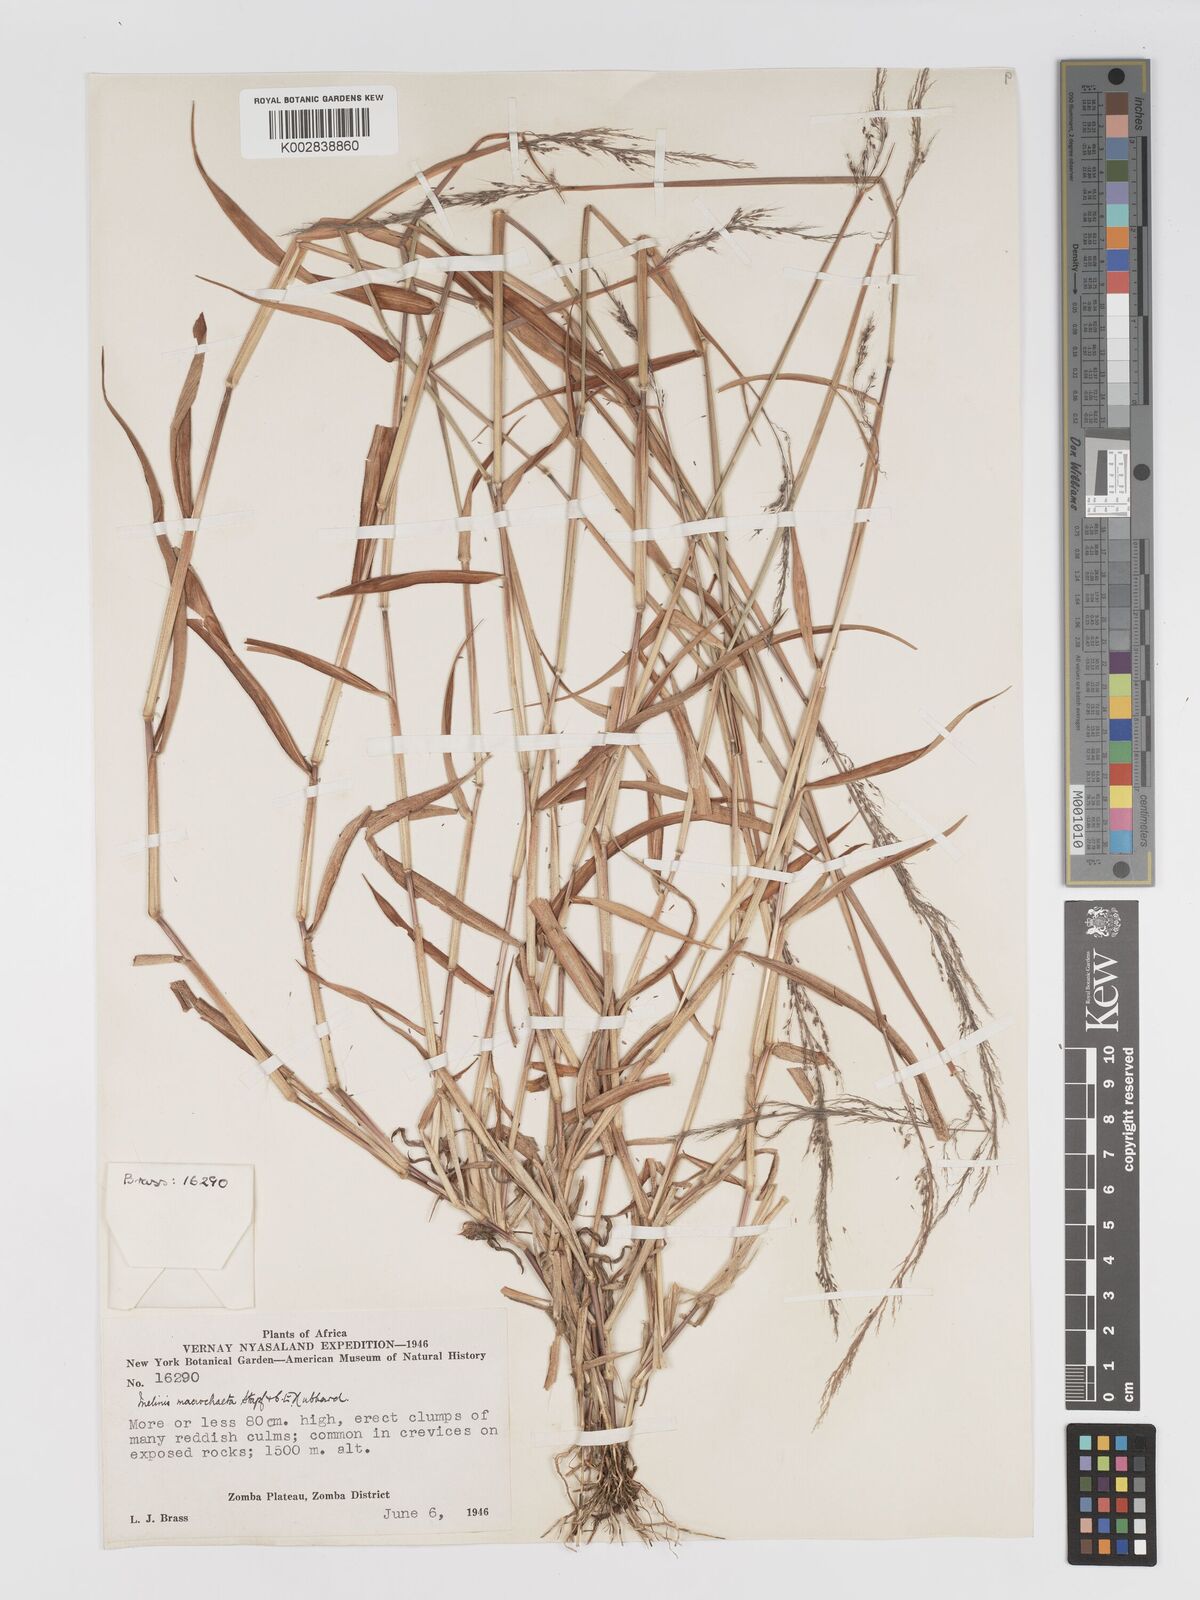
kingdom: Plantae
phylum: Tracheophyta
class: Liliopsida
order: Poales
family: Poaceae
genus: Melinis
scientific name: Melinis macrochaeta
